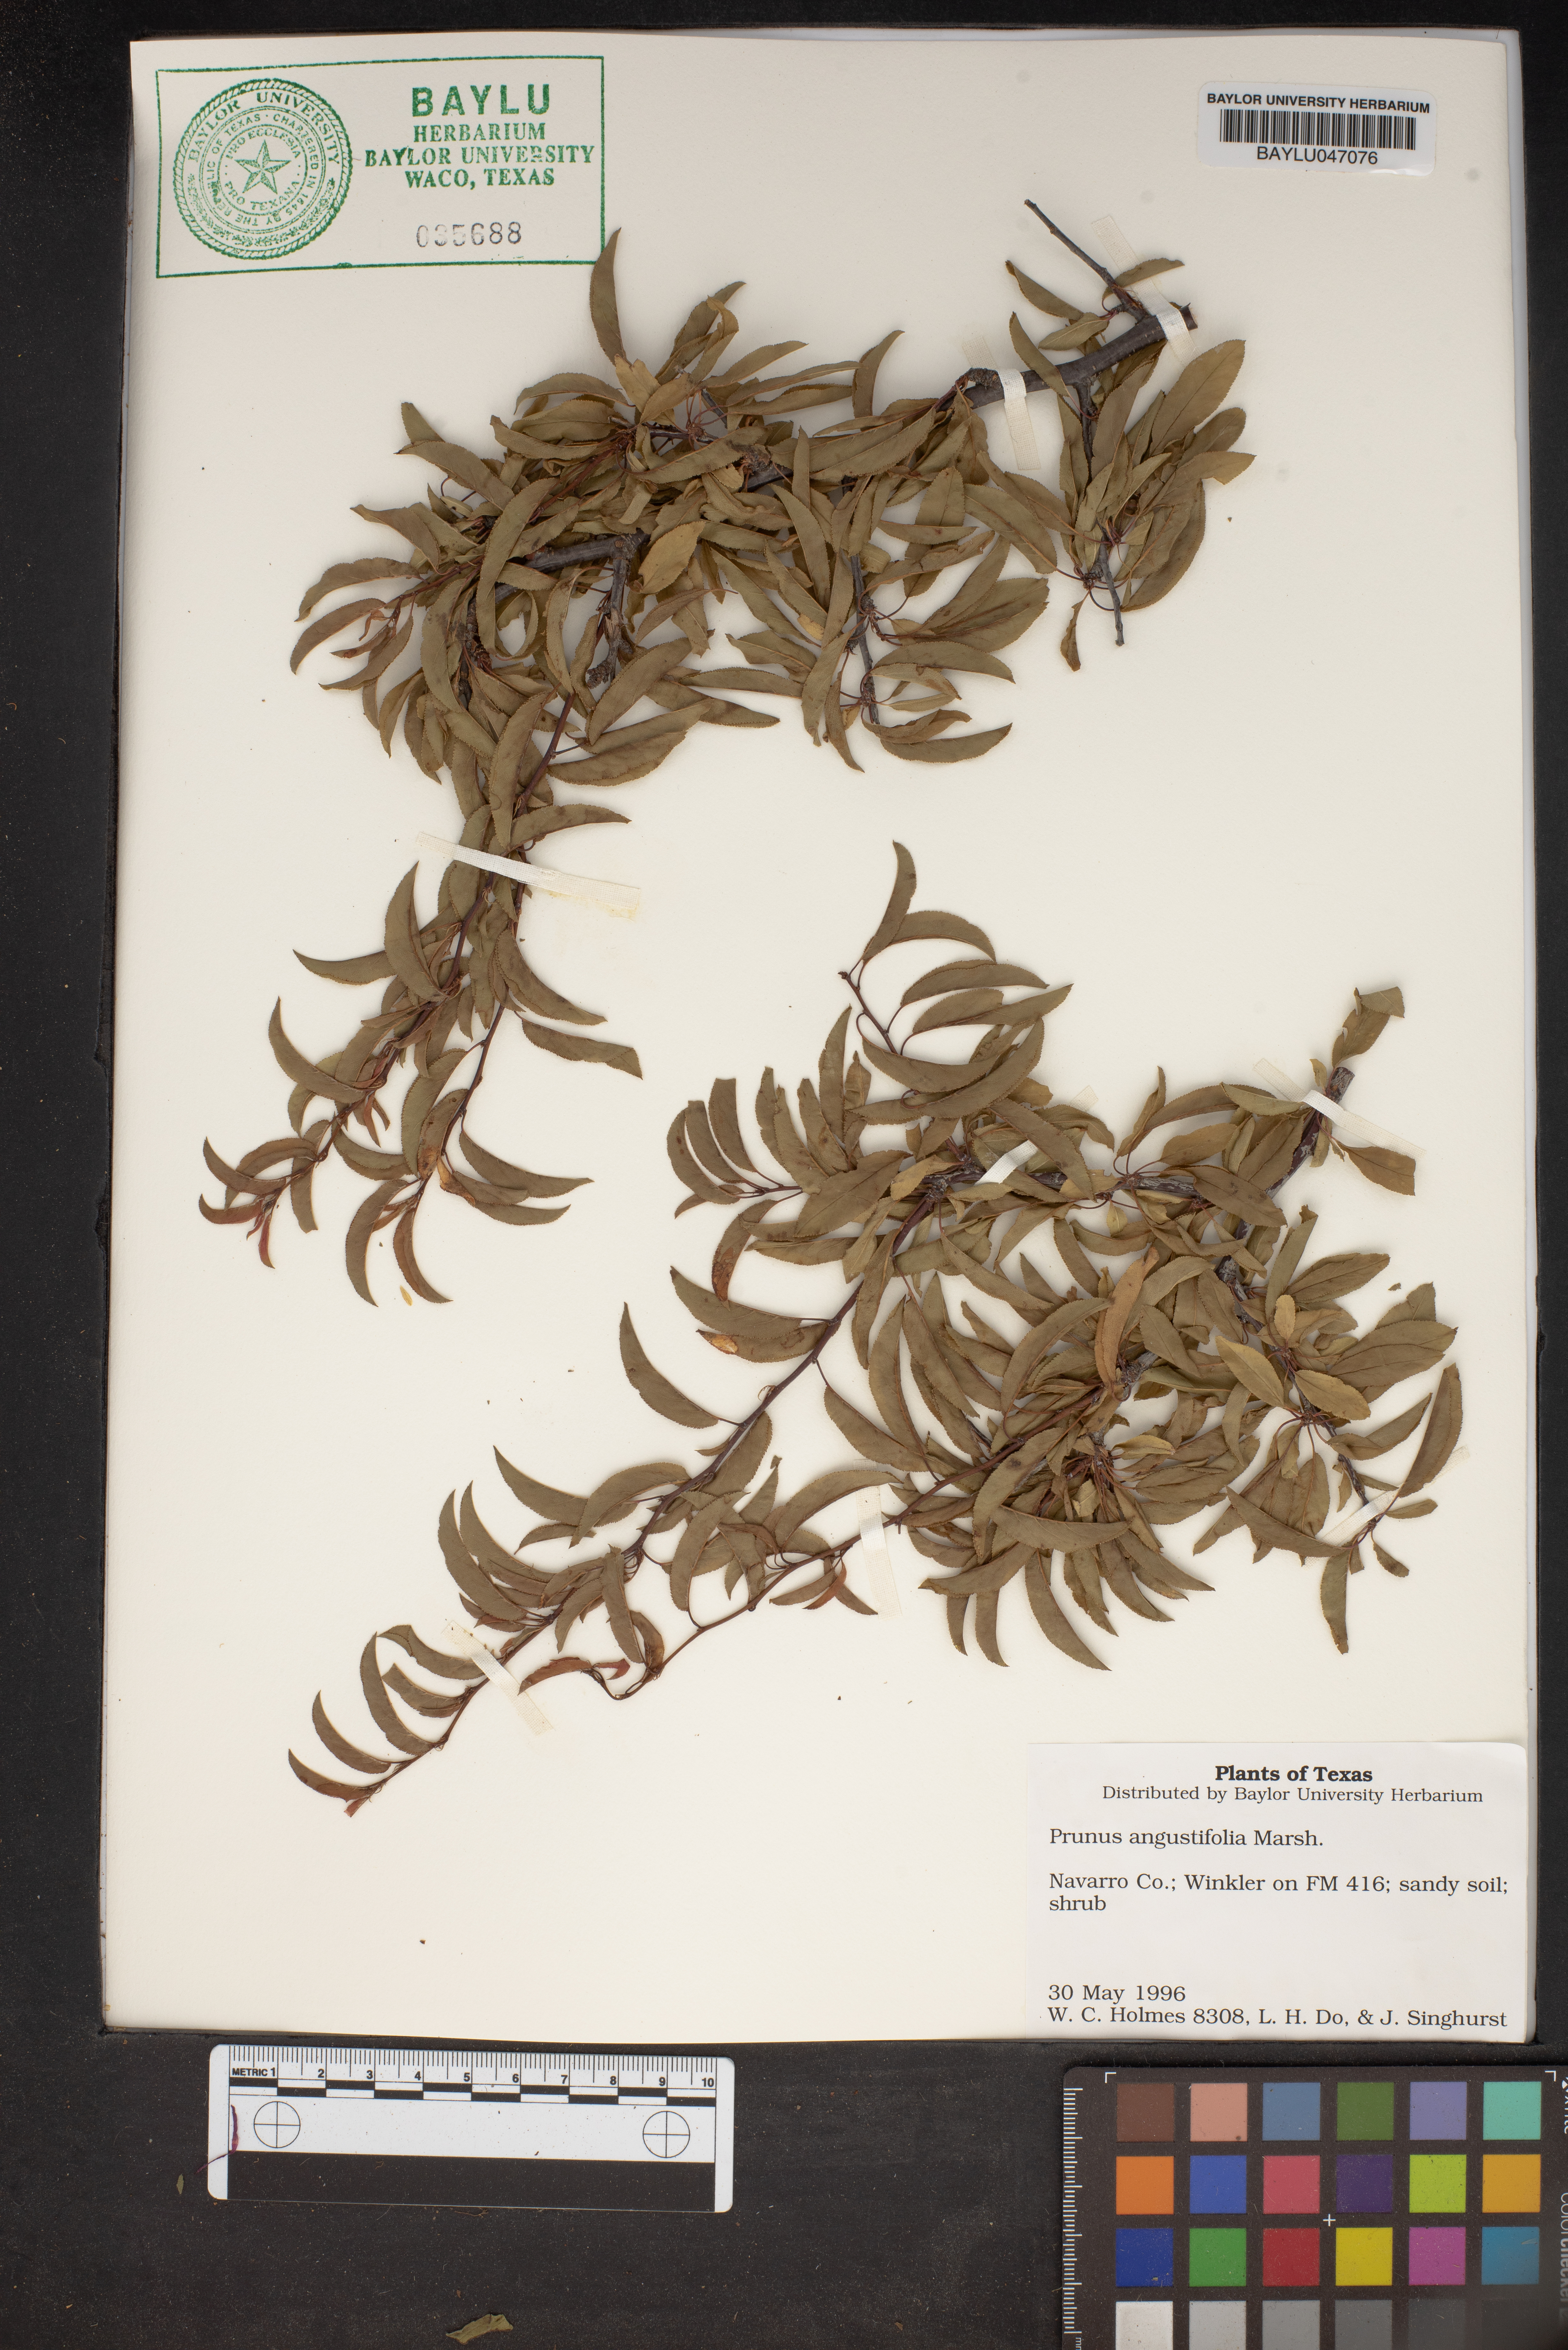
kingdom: Plantae
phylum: Tracheophyta
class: Magnoliopsida
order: Rosales
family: Rosaceae
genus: Prunus
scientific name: Prunus angustifolia
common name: Cherokee plum
